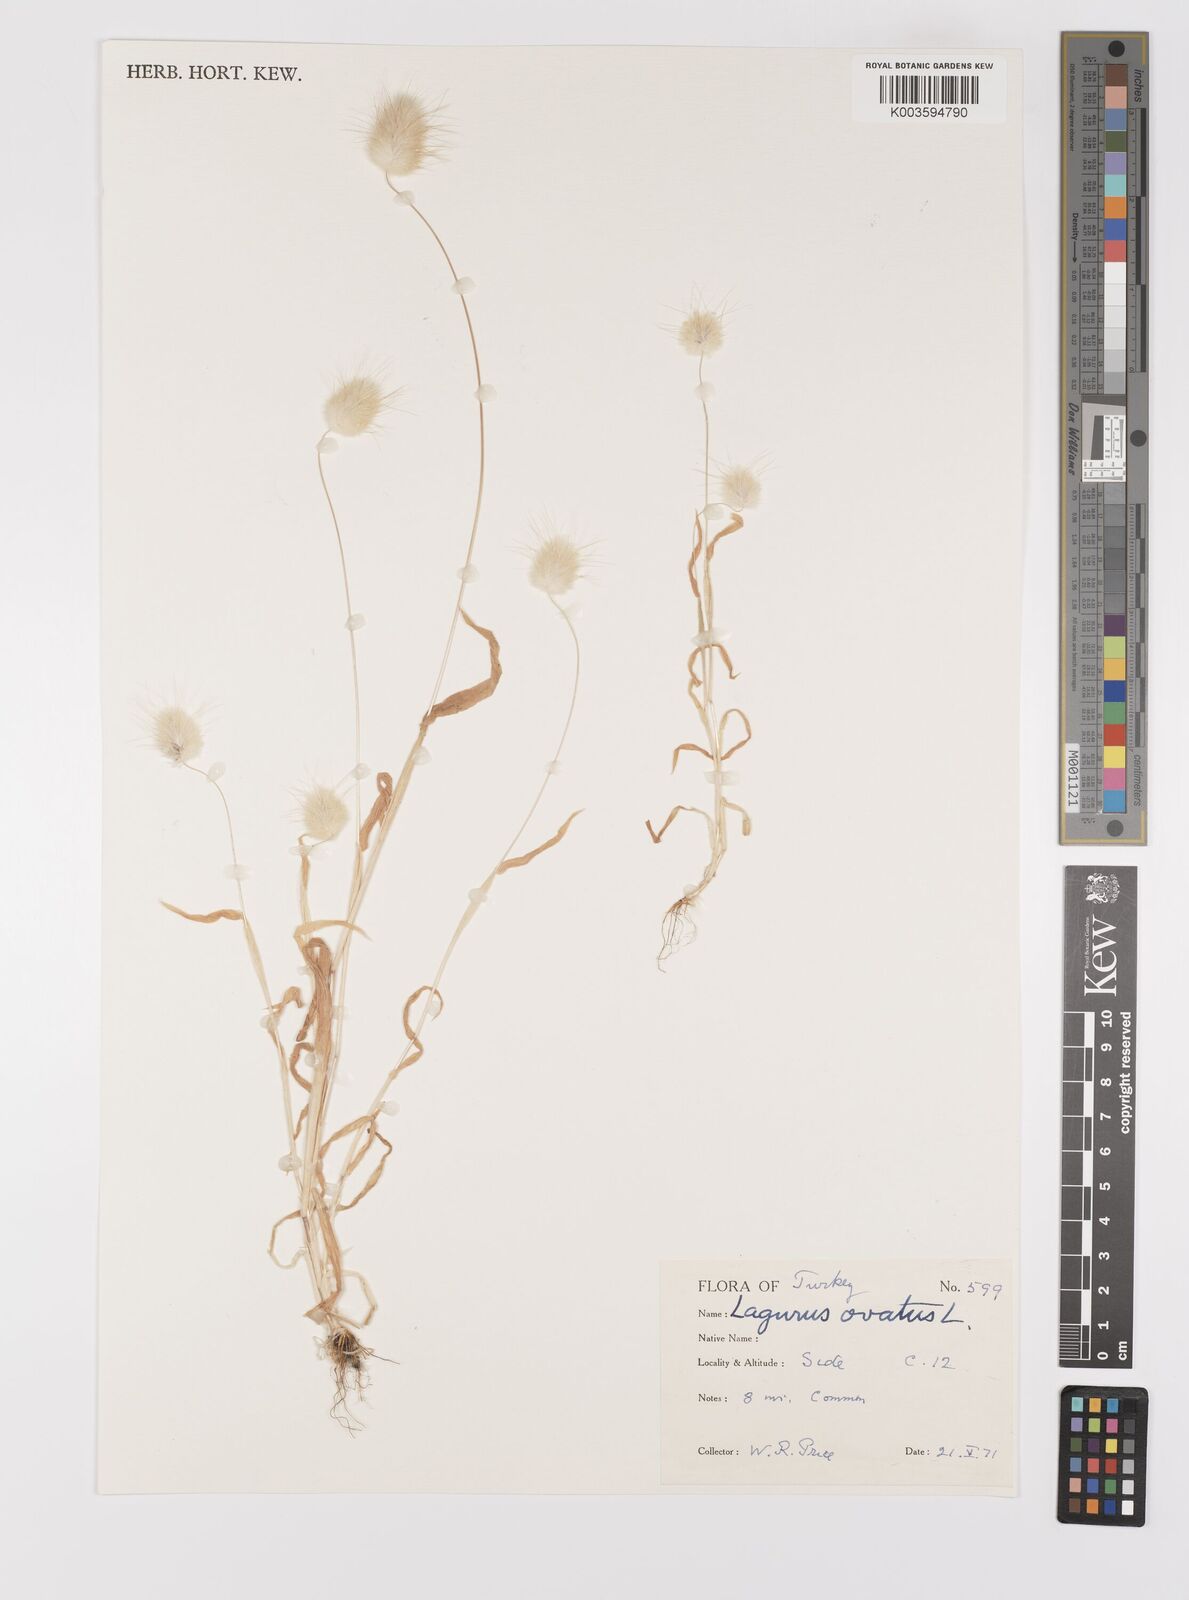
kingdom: Plantae
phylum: Tracheophyta
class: Liliopsida
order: Poales
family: Poaceae
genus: Lagurus
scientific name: Lagurus ovatus
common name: Hare's-tail
